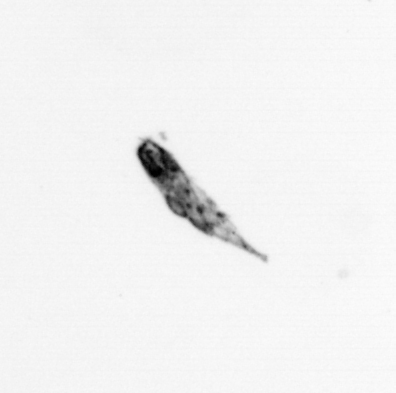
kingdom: Animalia
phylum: Arthropoda
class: Copepoda
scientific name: Copepoda
